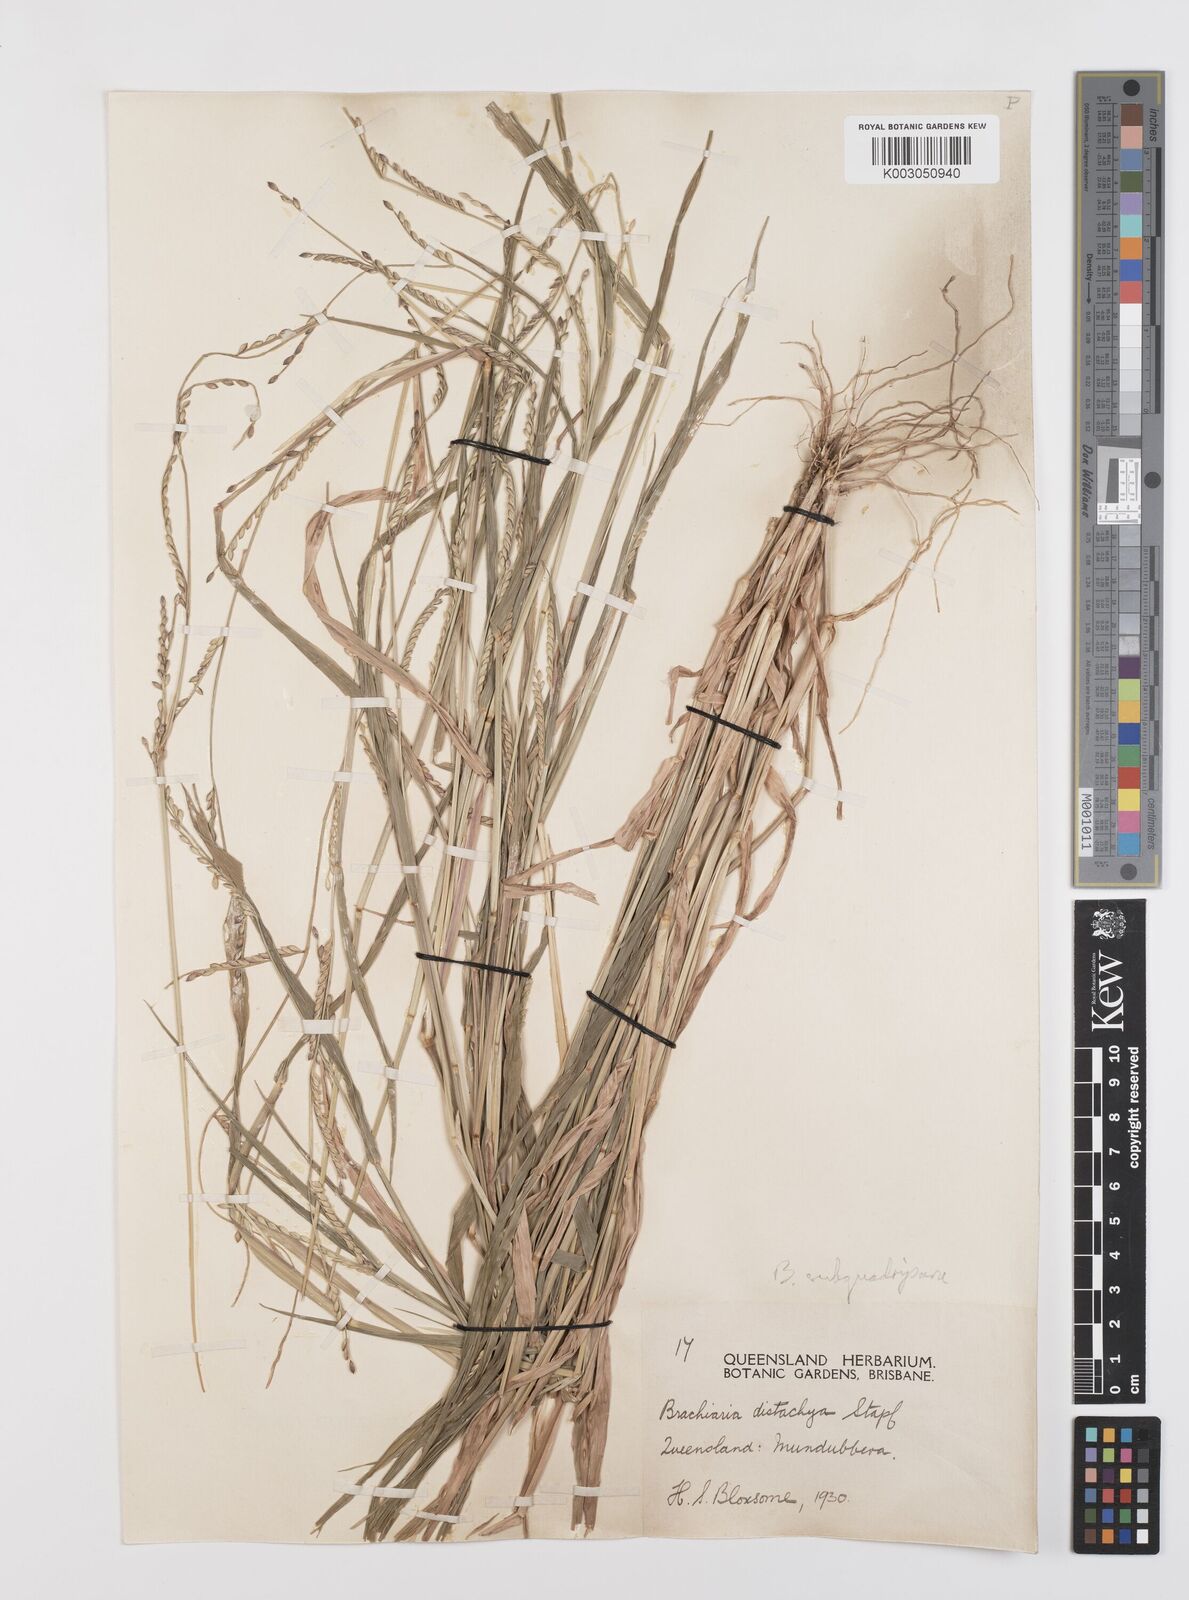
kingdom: Plantae
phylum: Tracheophyta
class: Liliopsida
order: Poales
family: Poaceae
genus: Urochloa
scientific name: Urochloa subquadripara
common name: Armgrass millet
